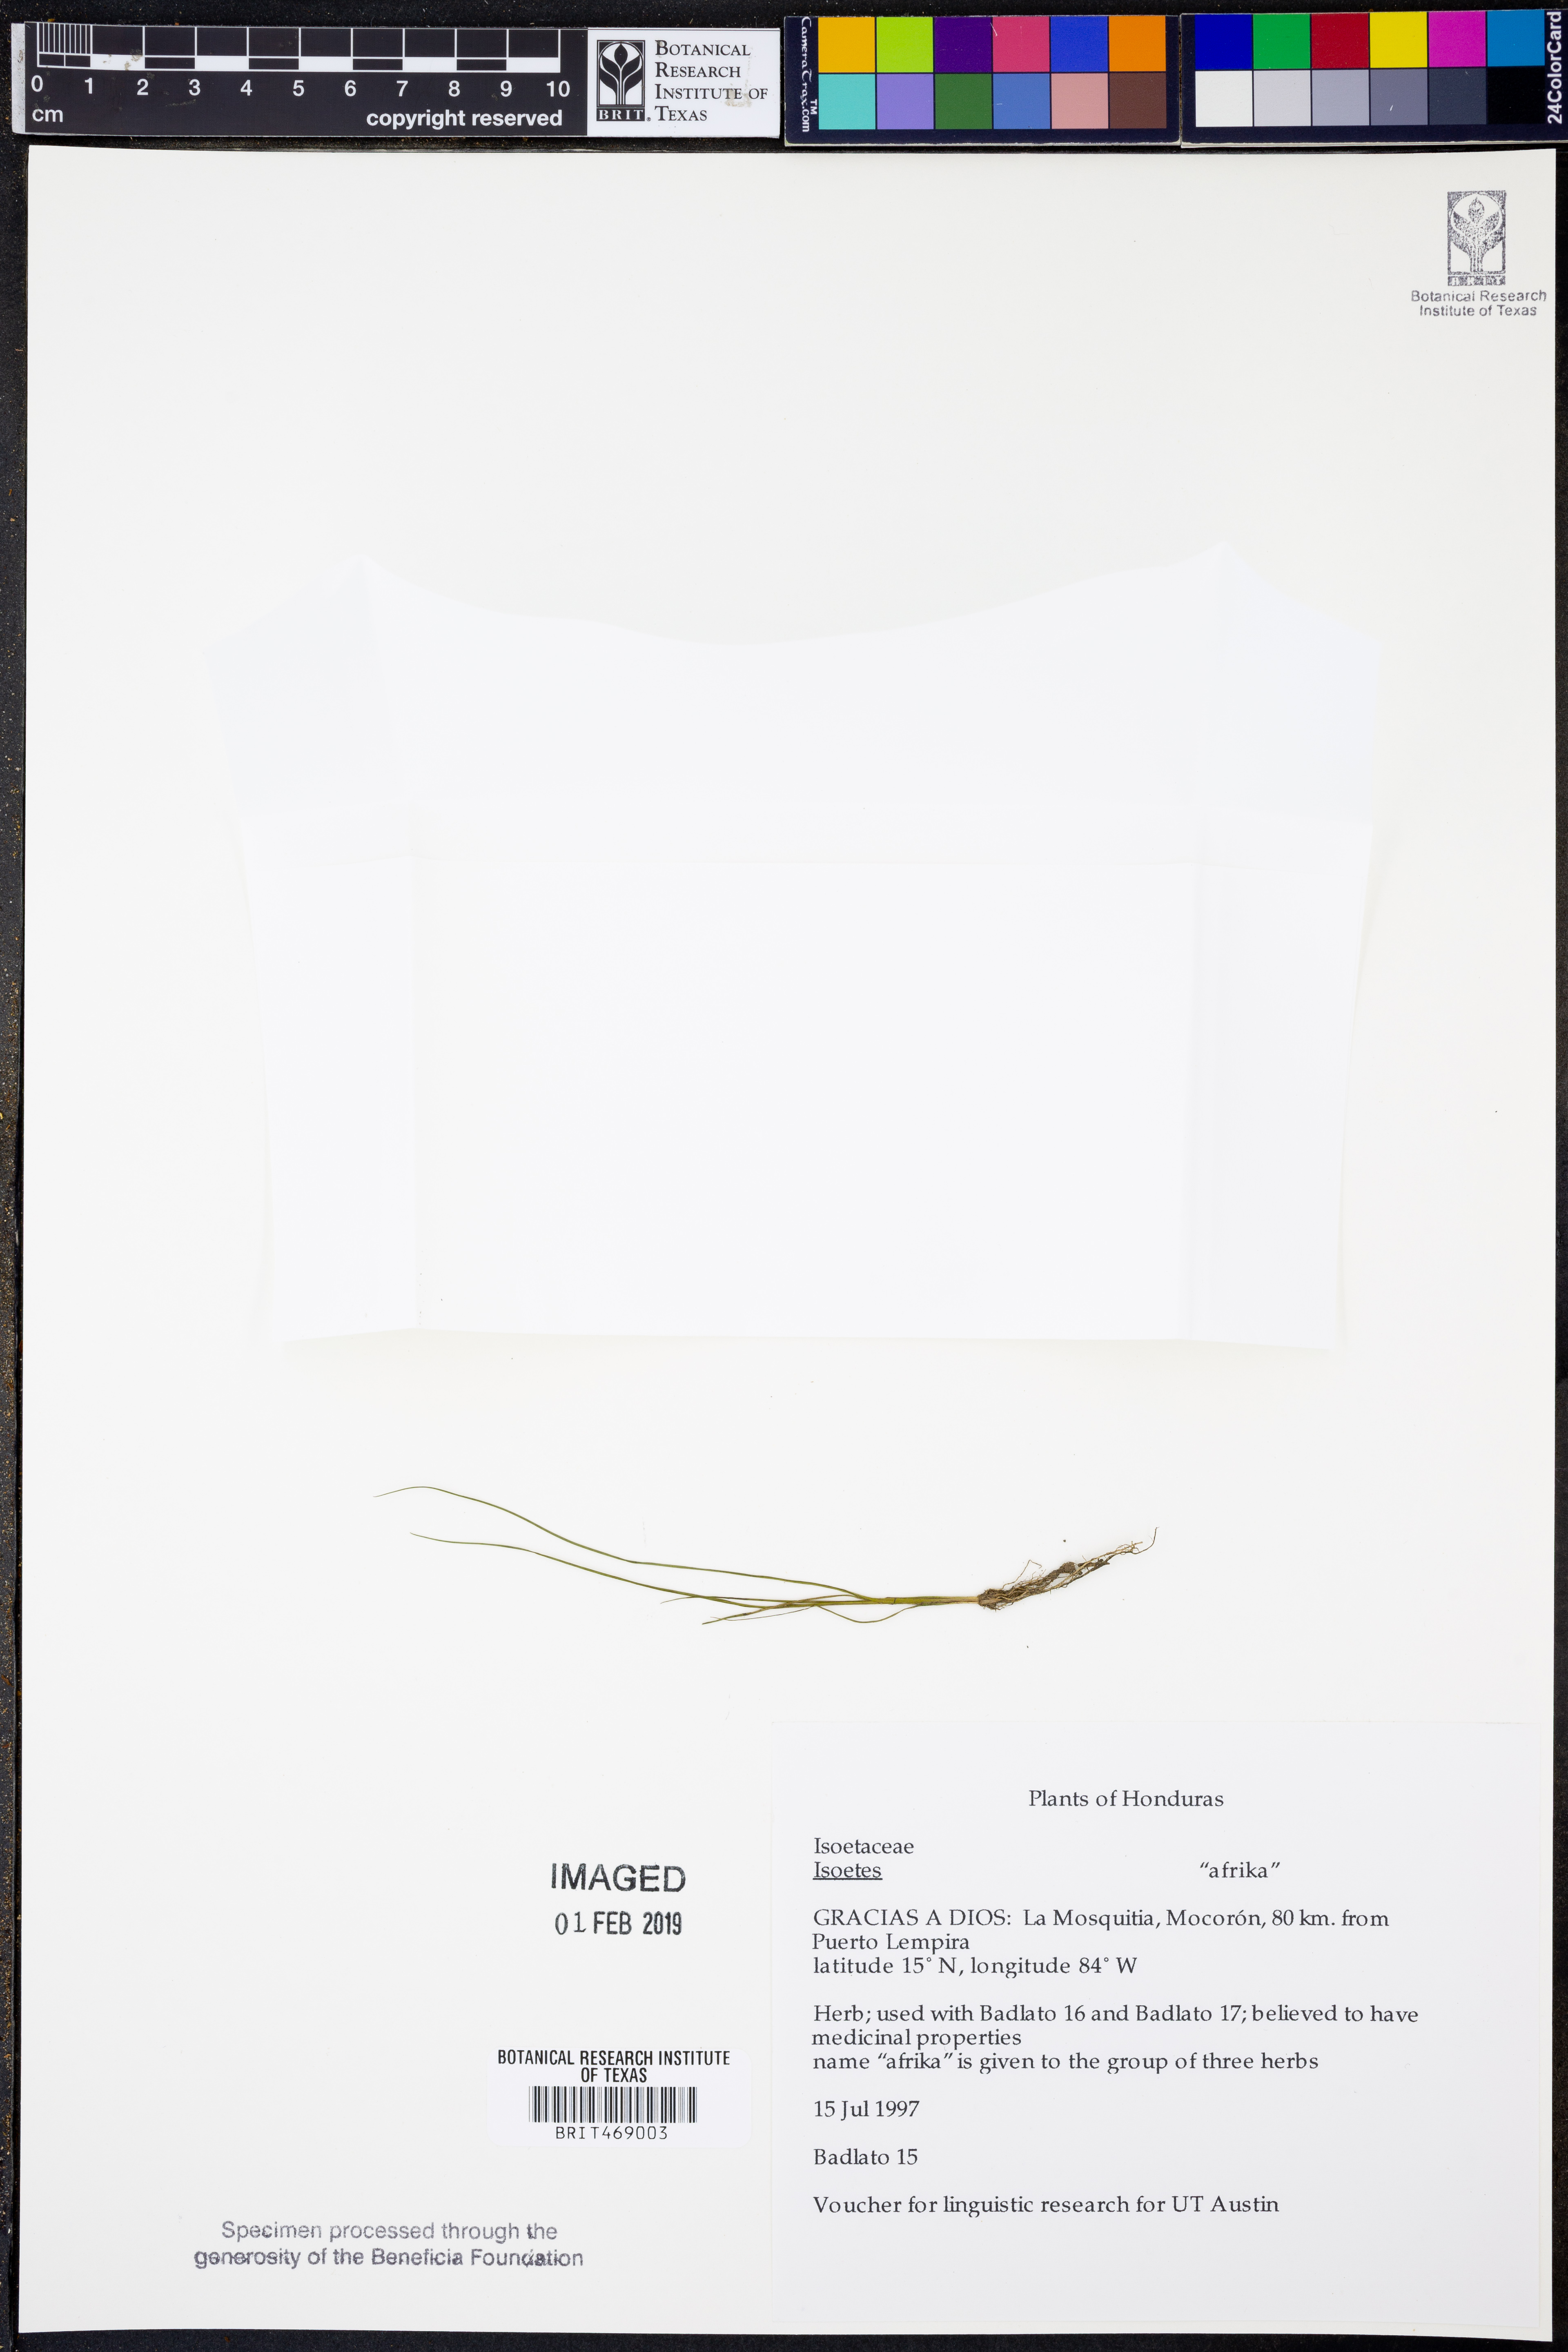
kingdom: Plantae
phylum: Tracheophyta
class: Lycopodiopsida
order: Isoetales
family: Isoetaceae
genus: Isoetes
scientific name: Isoetes
